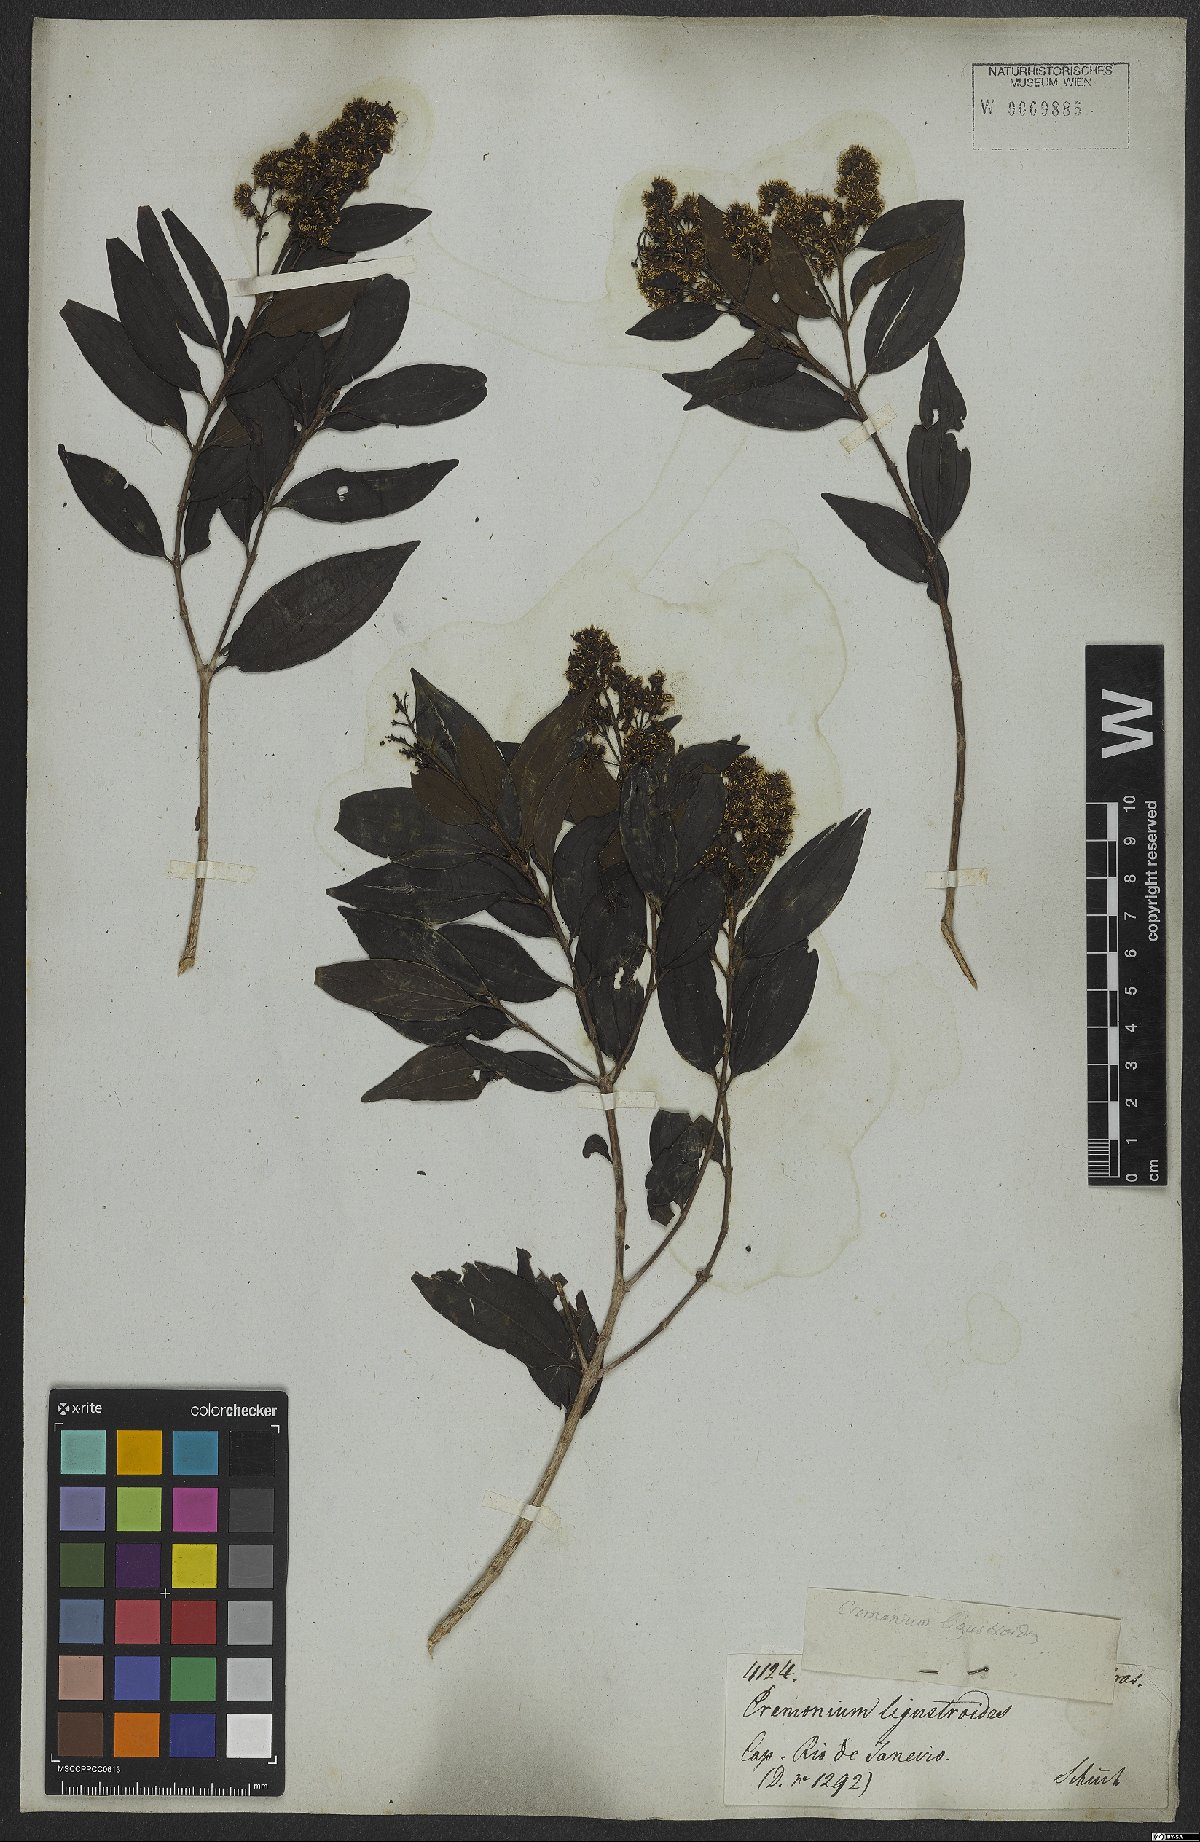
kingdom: Plantae
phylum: Tracheophyta
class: Magnoliopsida
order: Myrtales
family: Melastomataceae
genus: Miconia
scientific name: Miconia ligustroides
